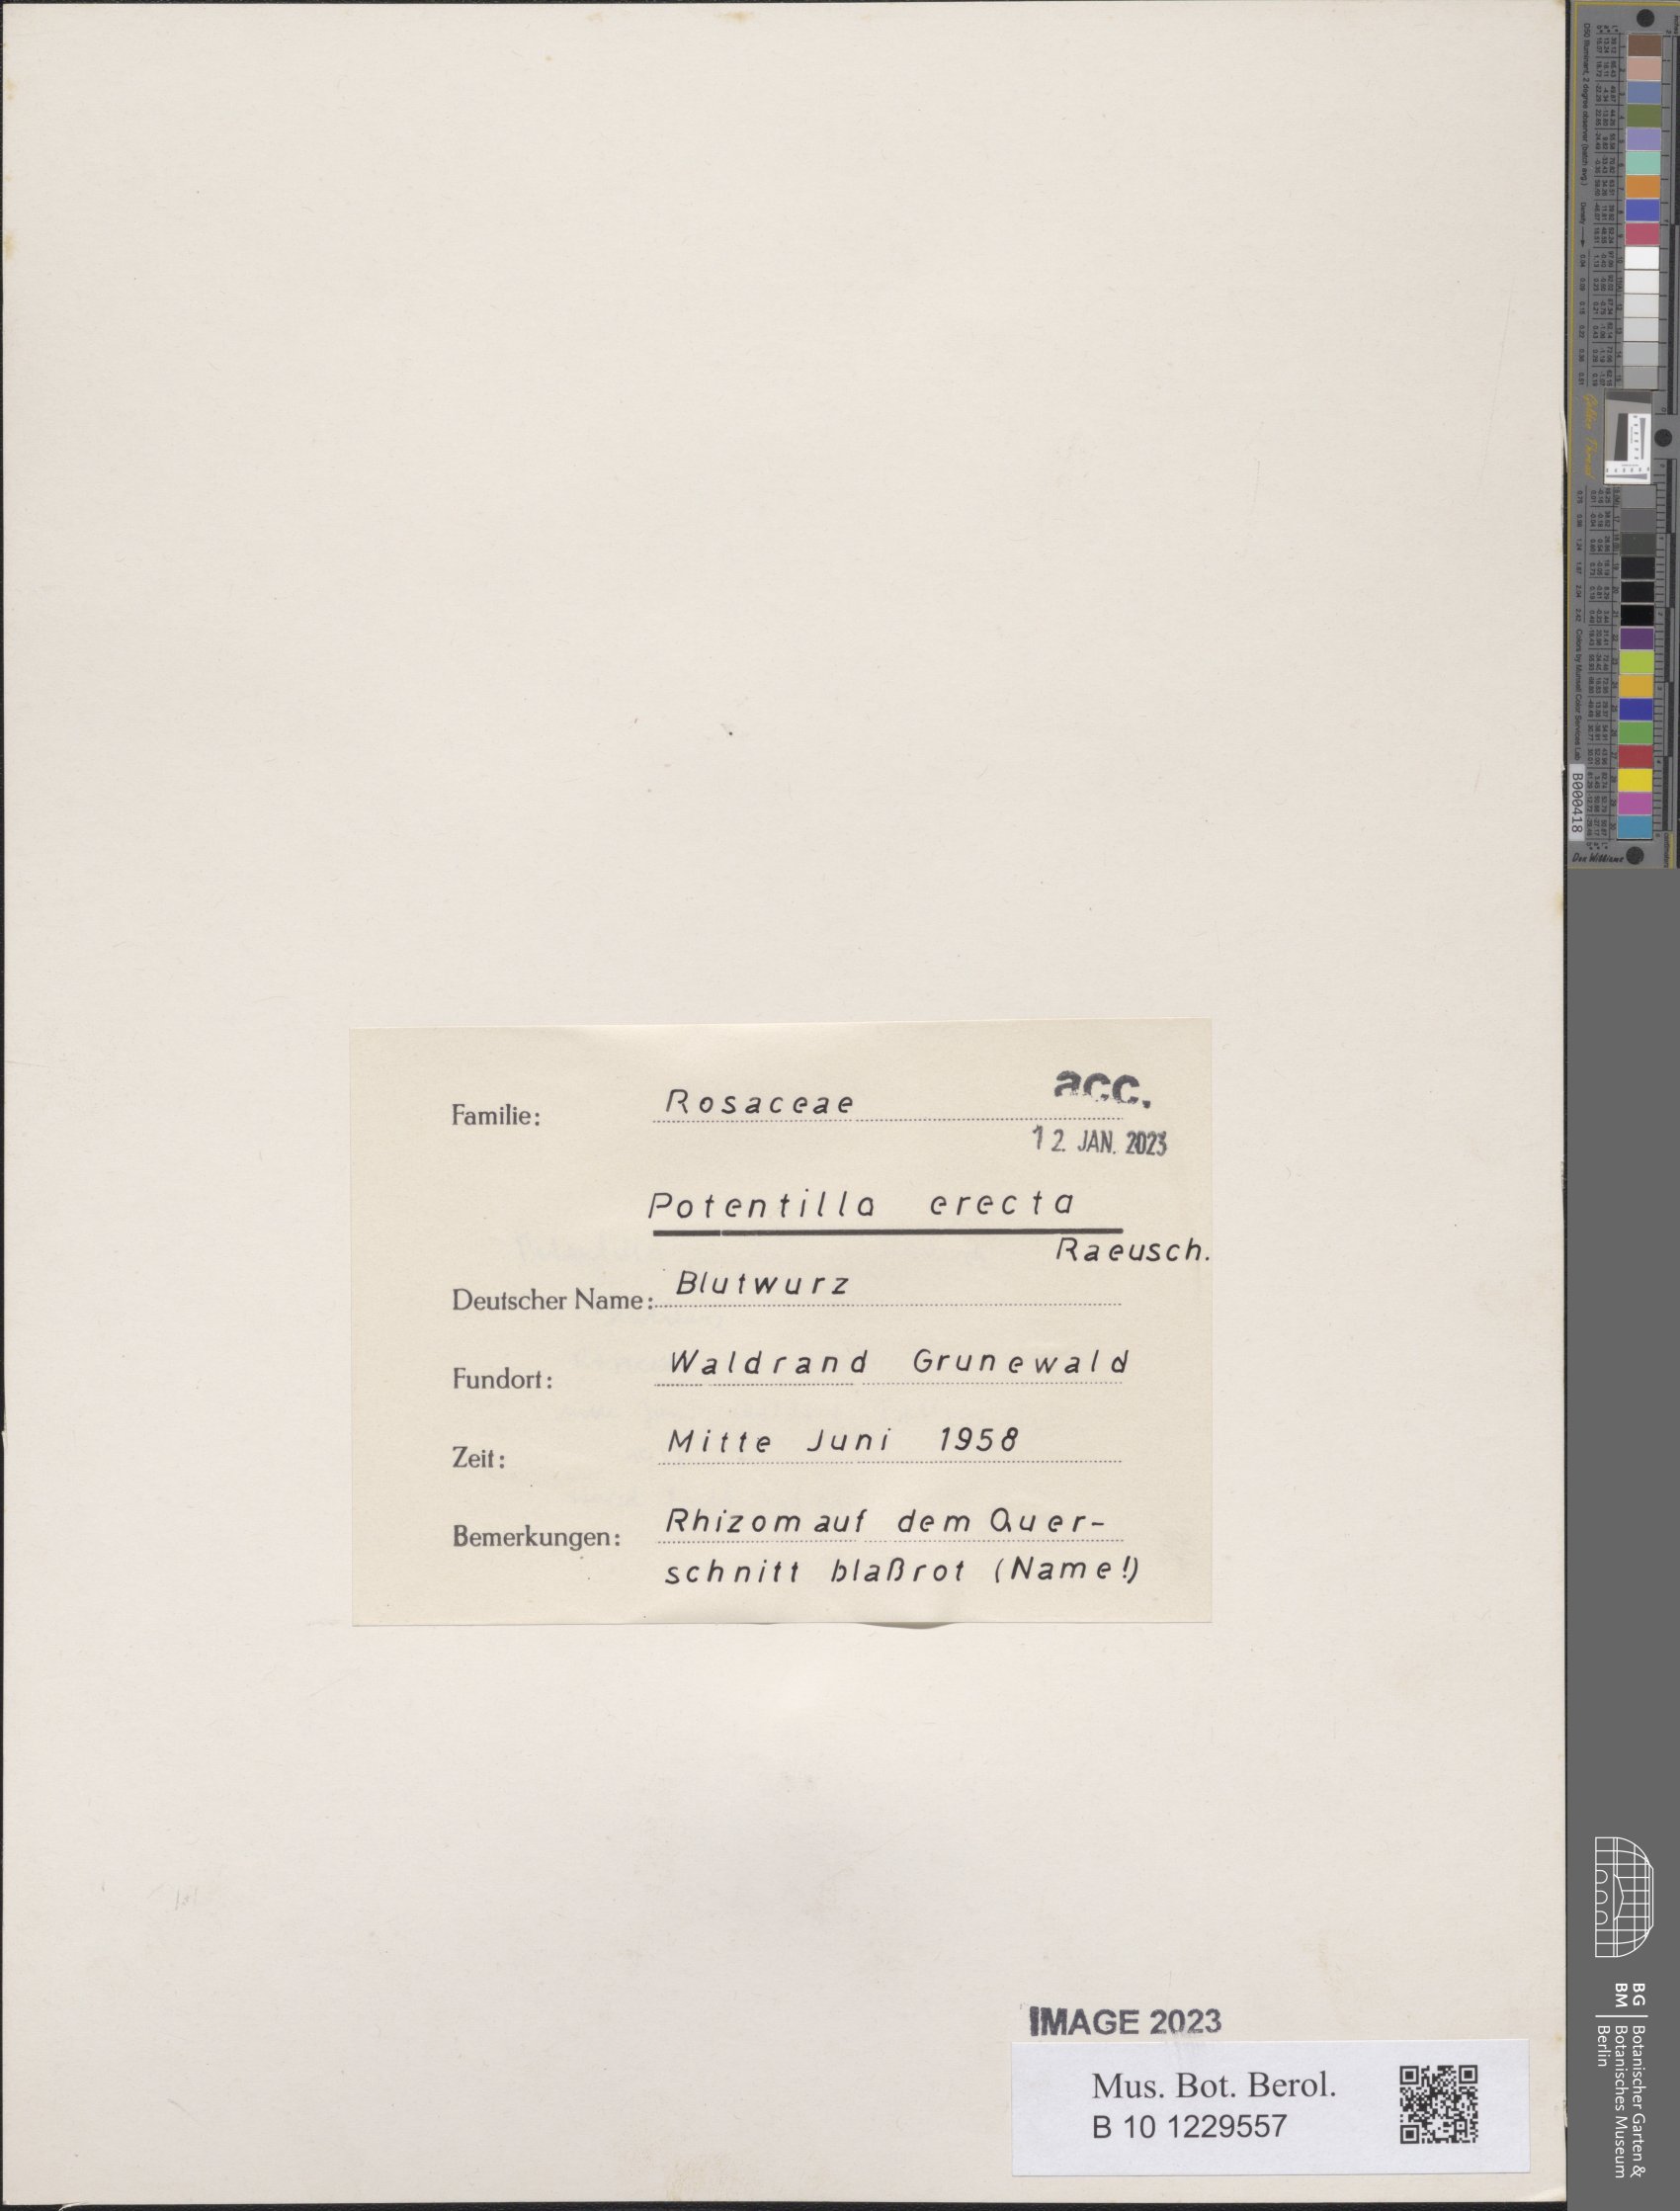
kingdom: Plantae
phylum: Tracheophyta
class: Magnoliopsida
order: Rosales
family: Rosaceae
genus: Potentilla
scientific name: Potentilla erecta
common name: Tormentil
